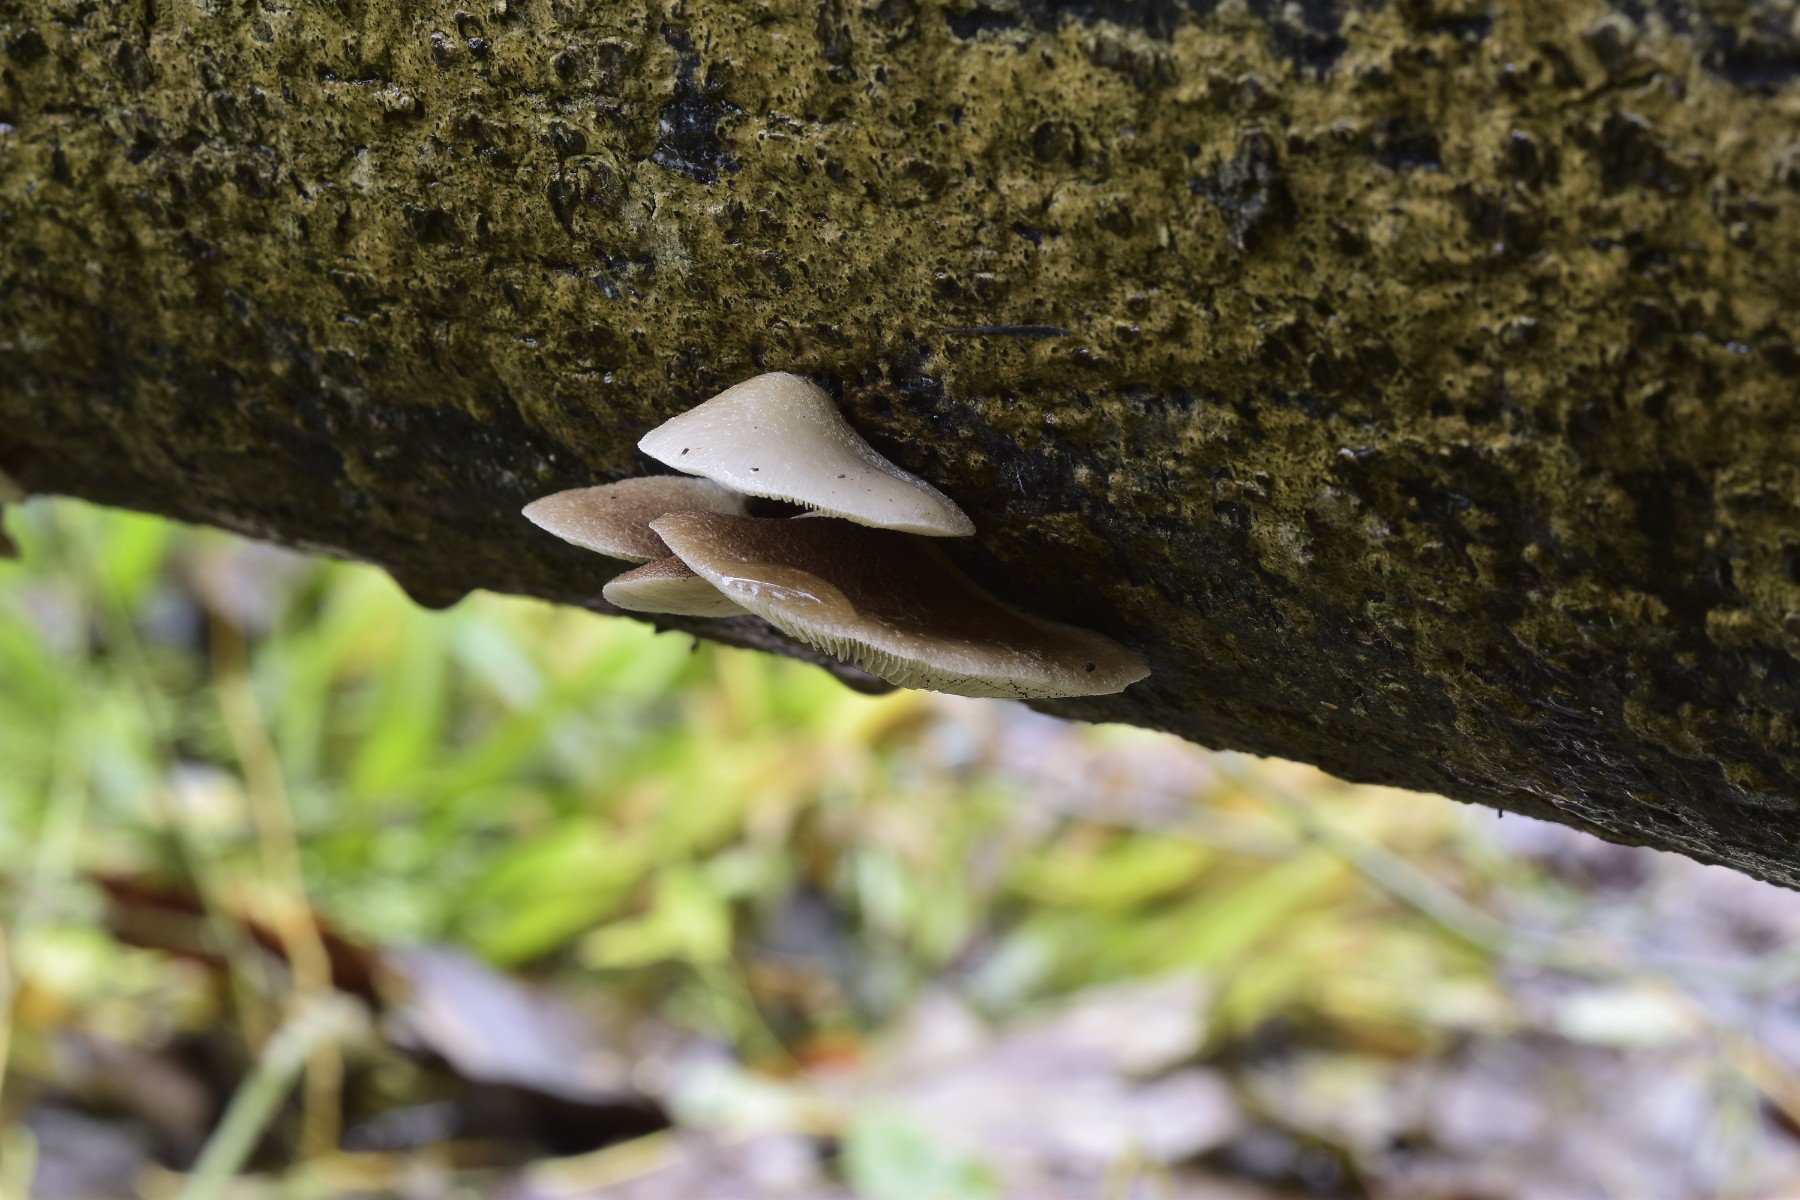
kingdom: Fungi
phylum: Basidiomycota
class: Agaricomycetes
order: Agaricales
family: Crepidotaceae
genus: Crepidotus
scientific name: Crepidotus mollis
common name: blød muslingesvamp
